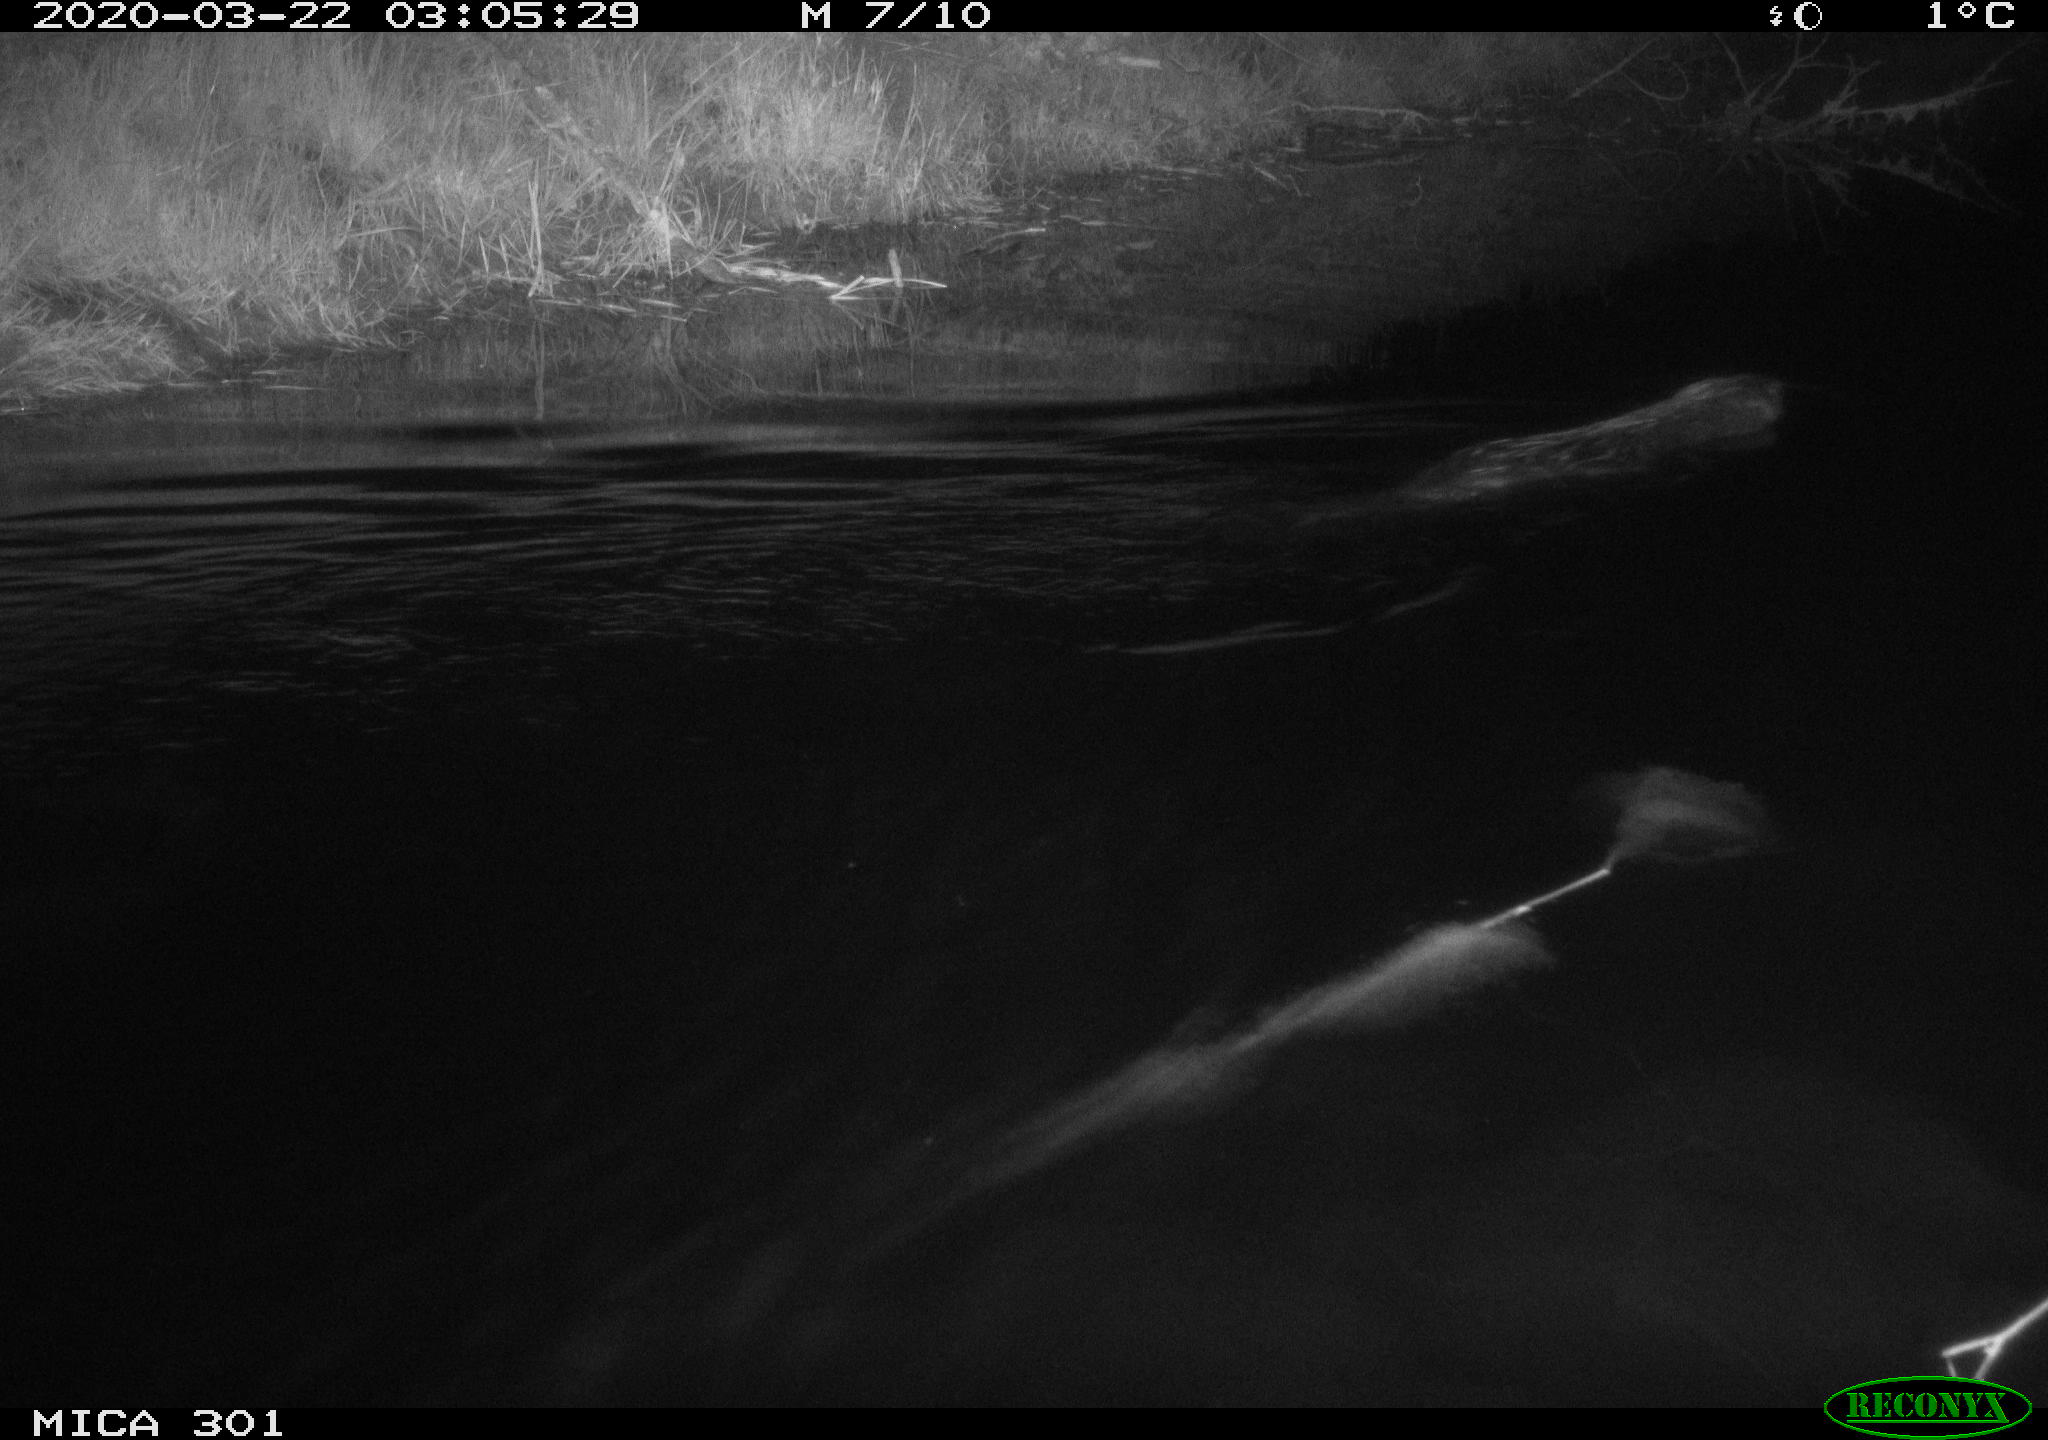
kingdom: Animalia
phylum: Chordata
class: Mammalia
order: Rodentia
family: Castoridae
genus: Castor
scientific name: Castor fiber
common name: Eurasian beaver
